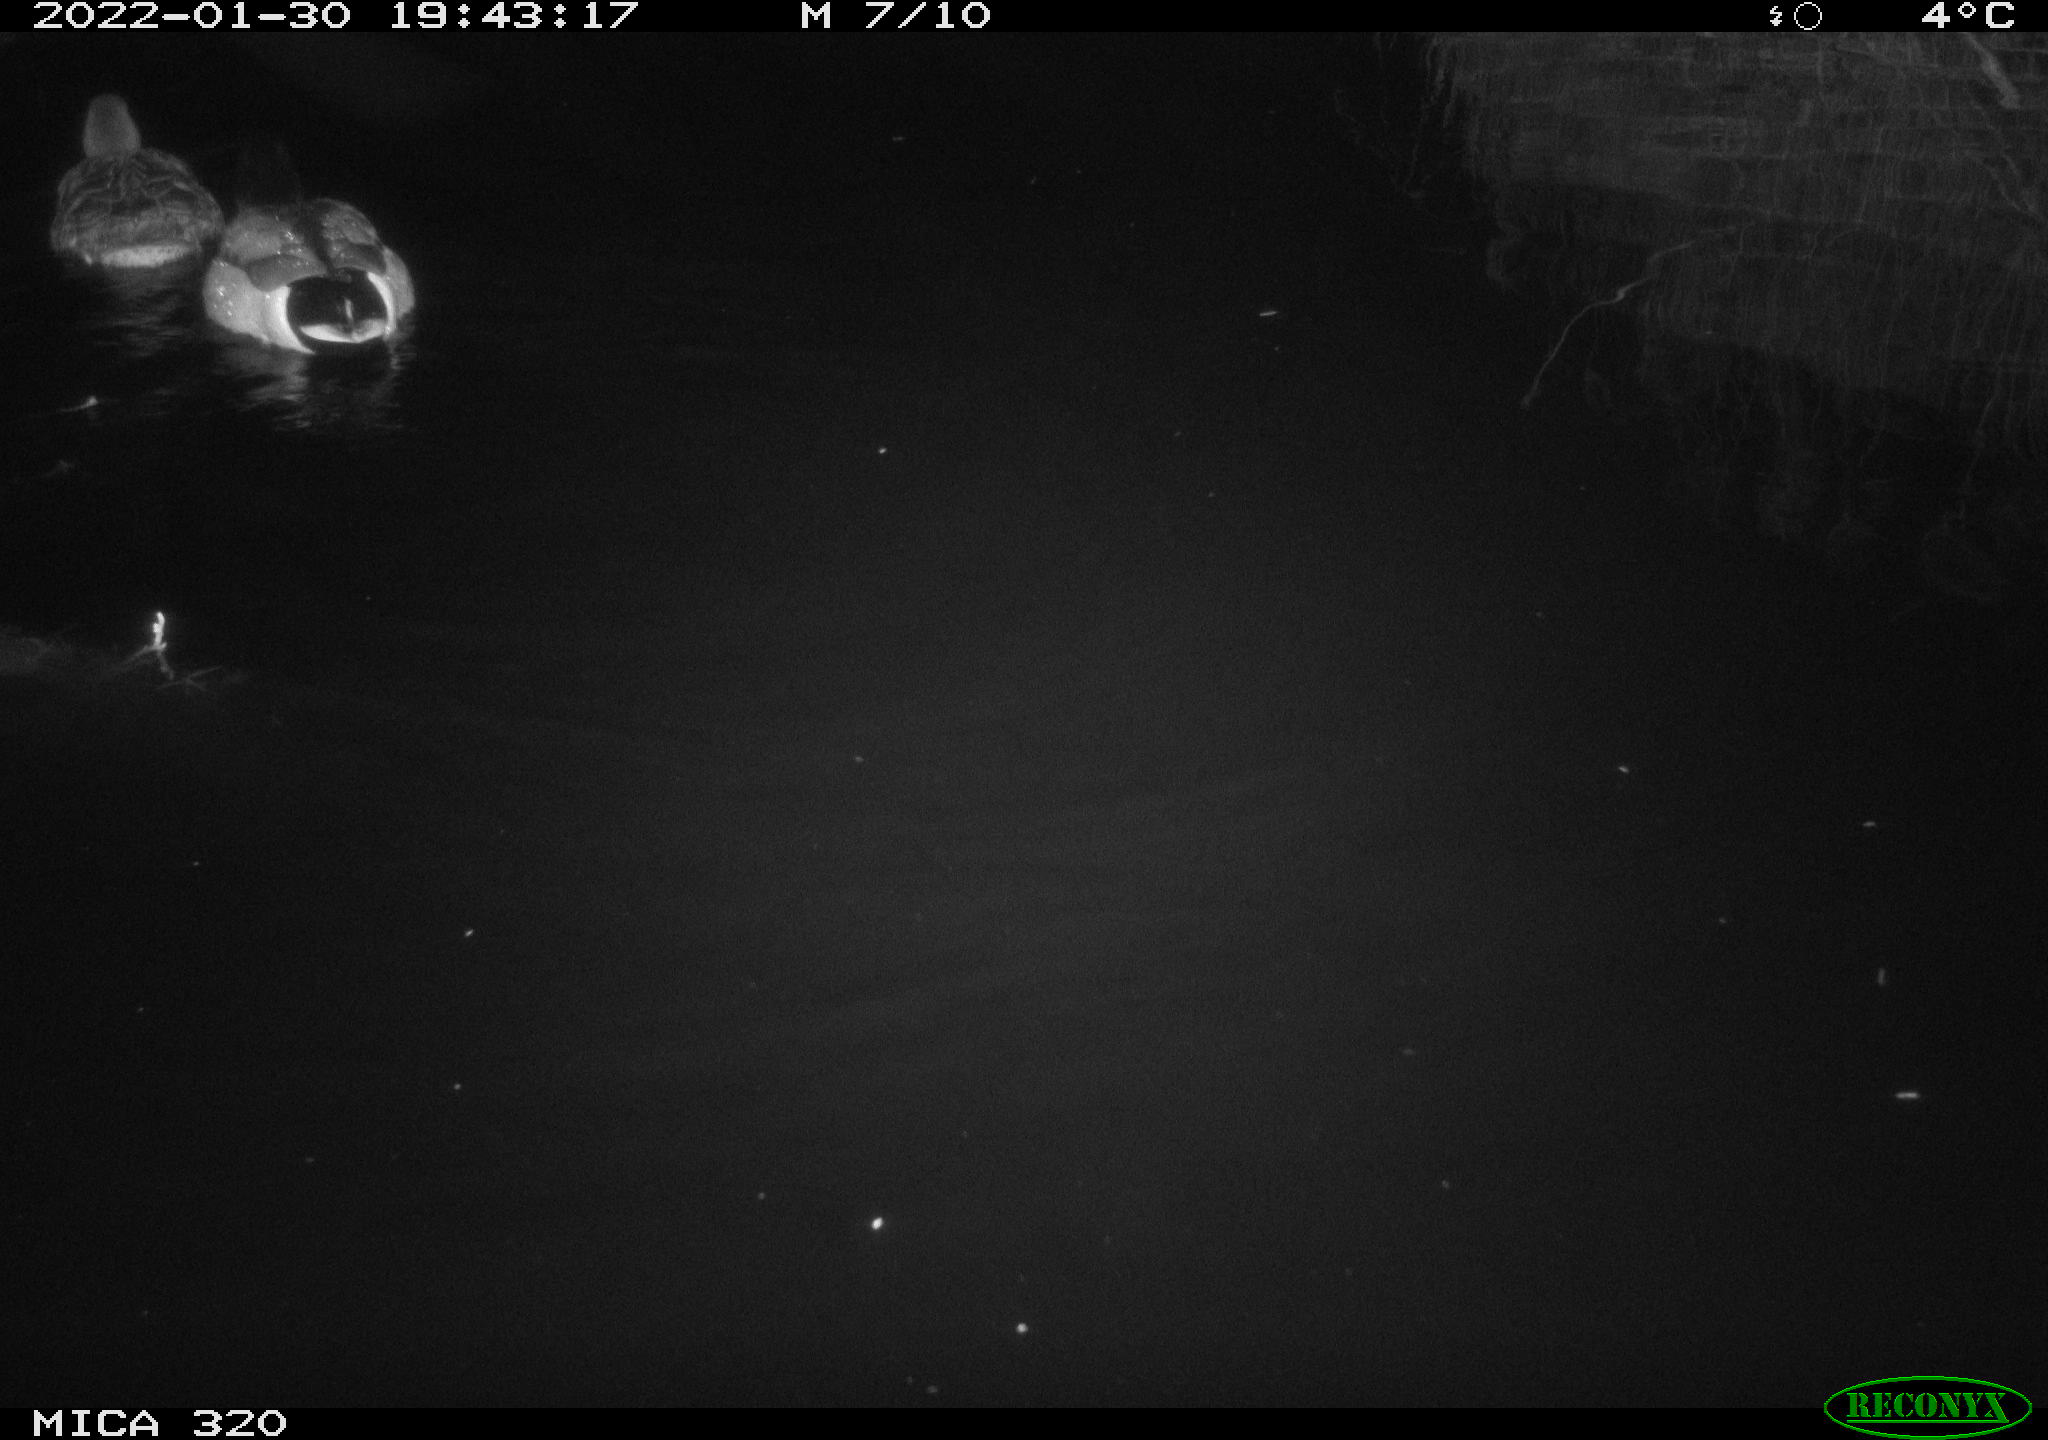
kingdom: Animalia
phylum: Chordata
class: Aves
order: Anseriformes
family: Anatidae
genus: Anas
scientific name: Anas
